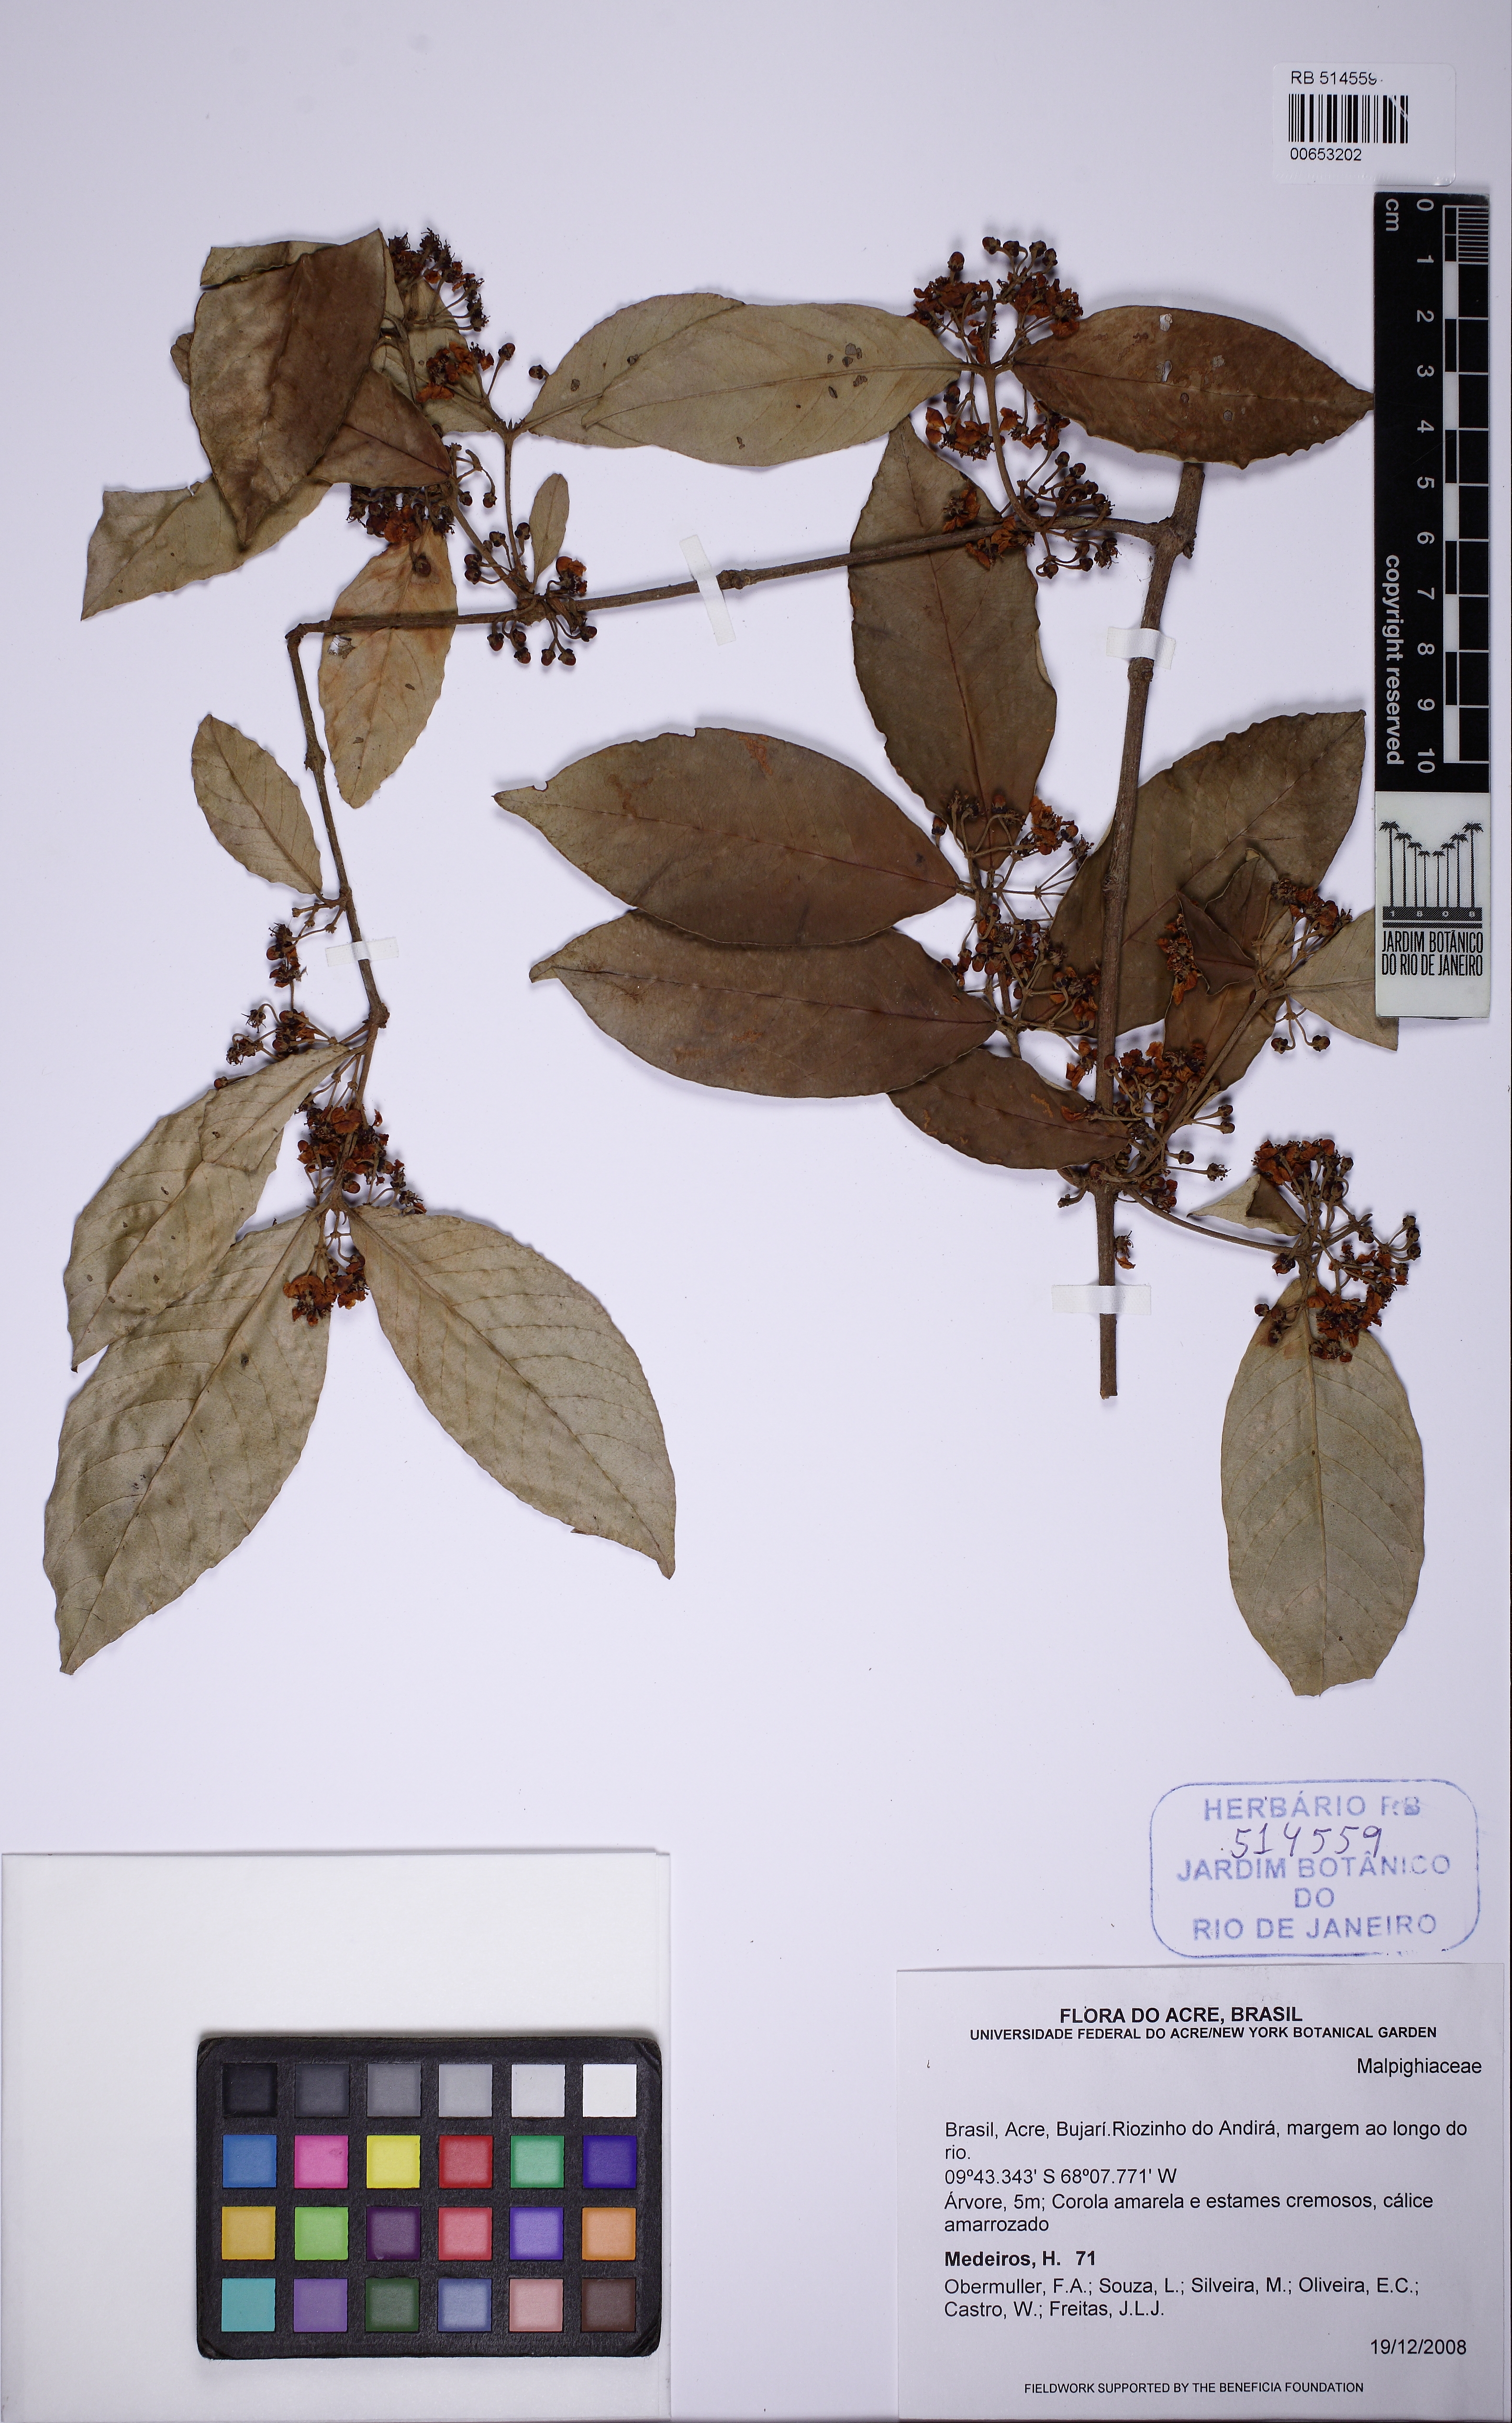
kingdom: Plantae
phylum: Tracheophyta
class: Magnoliopsida
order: Malpighiales
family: Malpighiaceae
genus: Hiraea
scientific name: Hiraea
